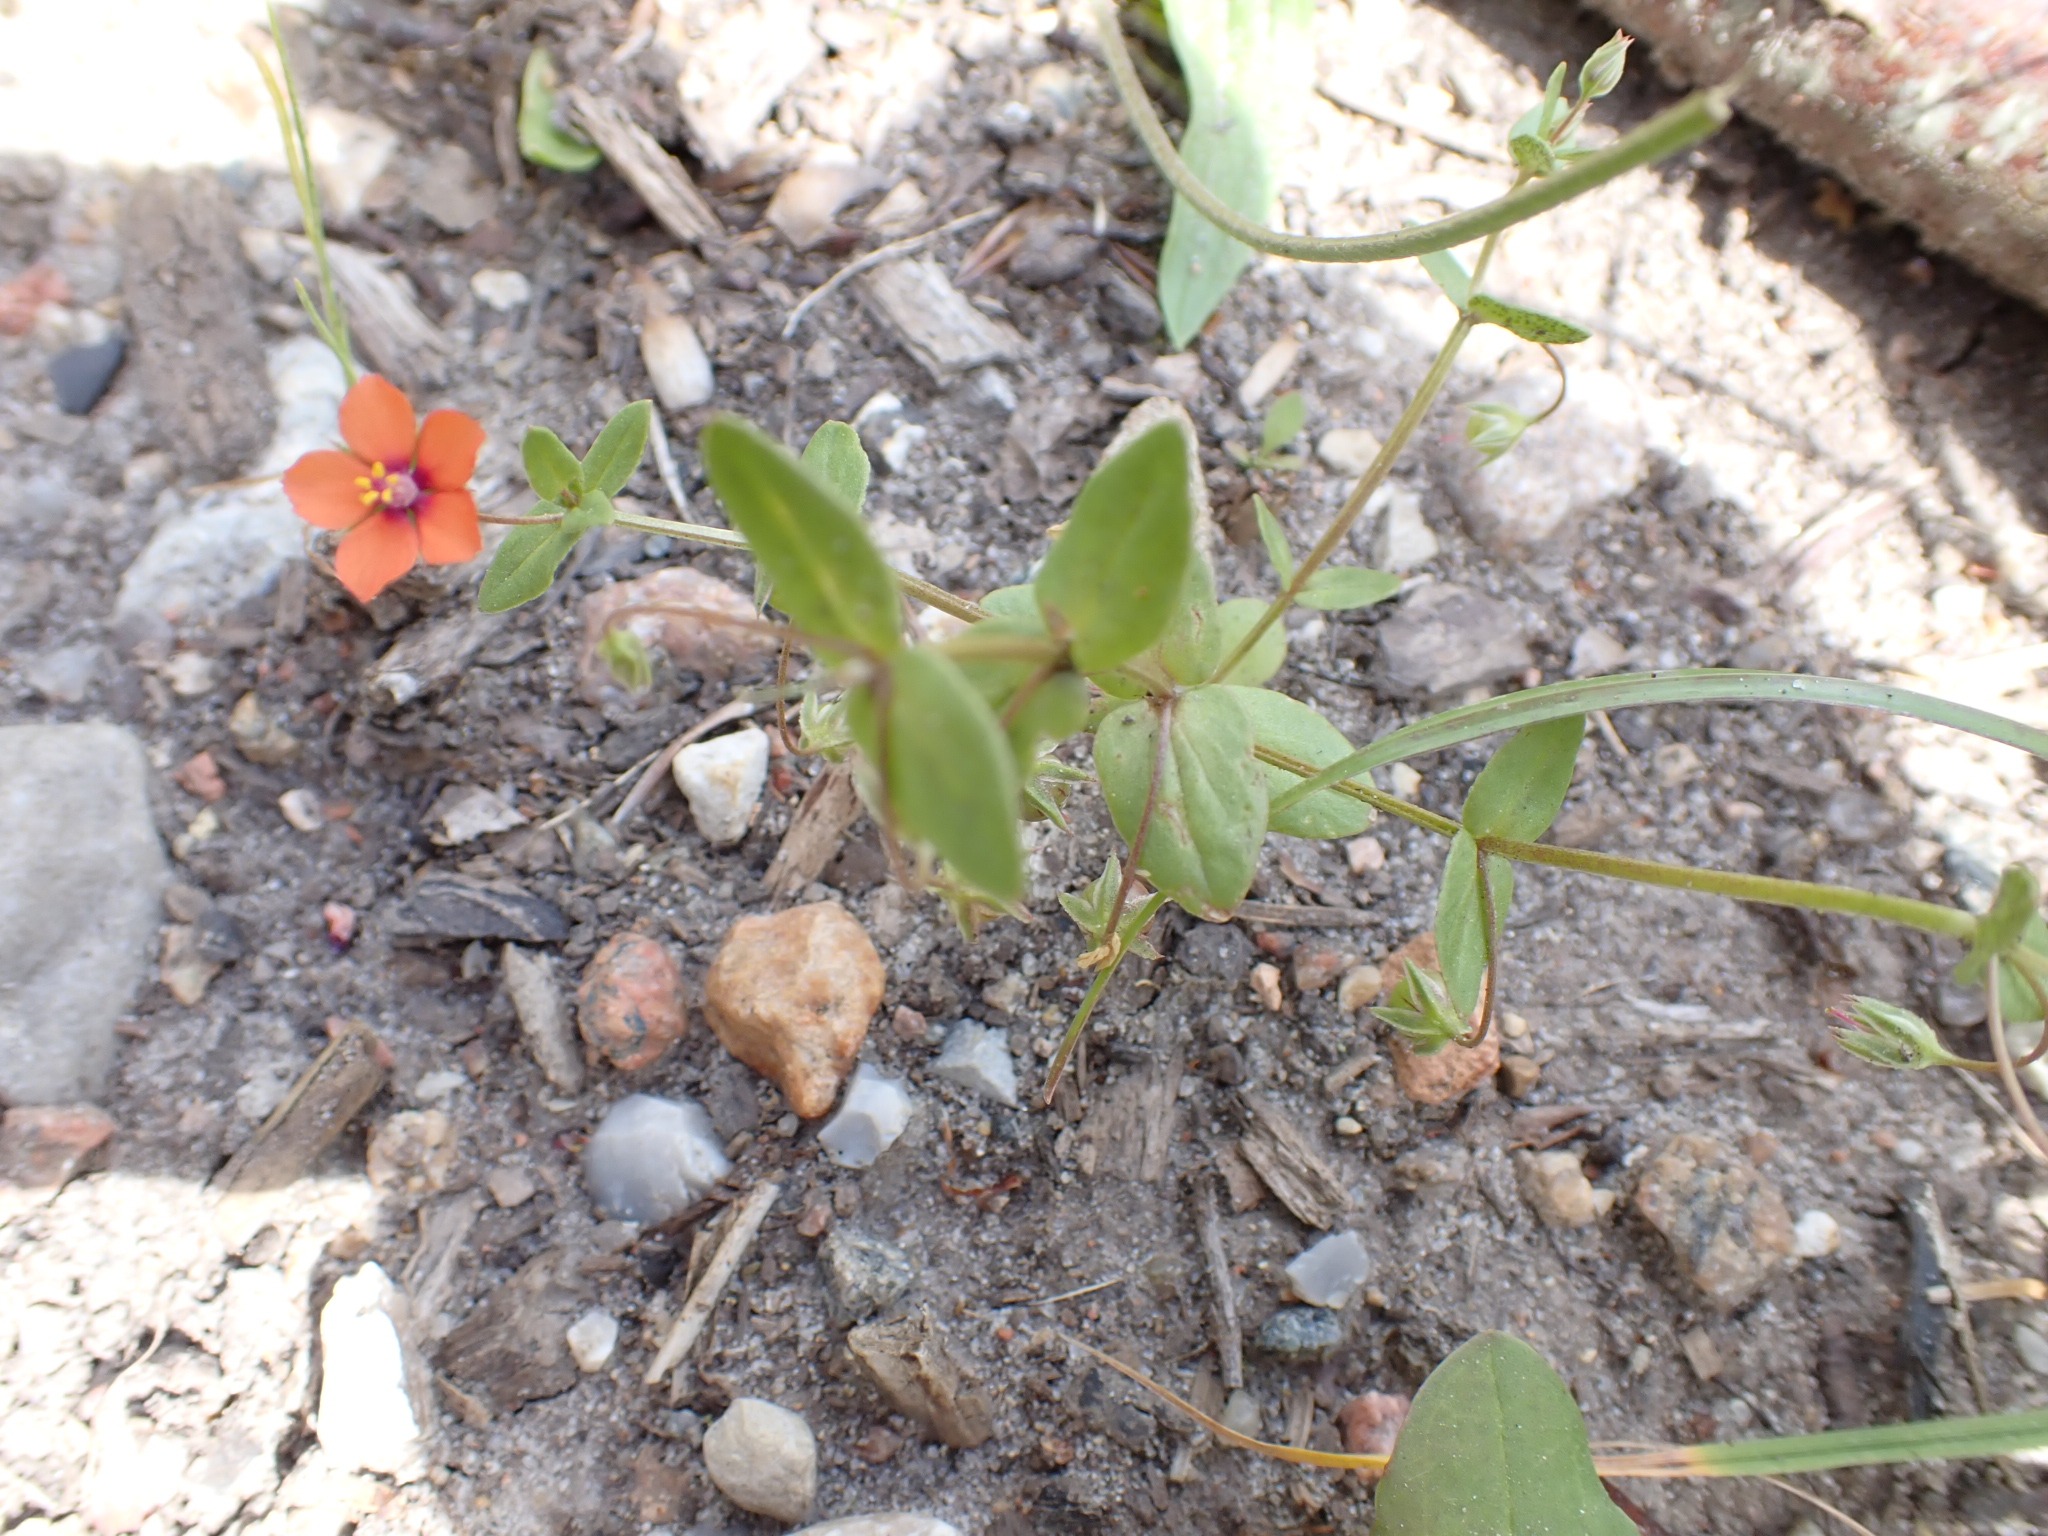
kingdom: Plantae
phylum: Tracheophyta
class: Magnoliopsida
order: Ericales
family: Primulaceae
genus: Lysimachia
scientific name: Lysimachia arvensis
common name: Rød arve
